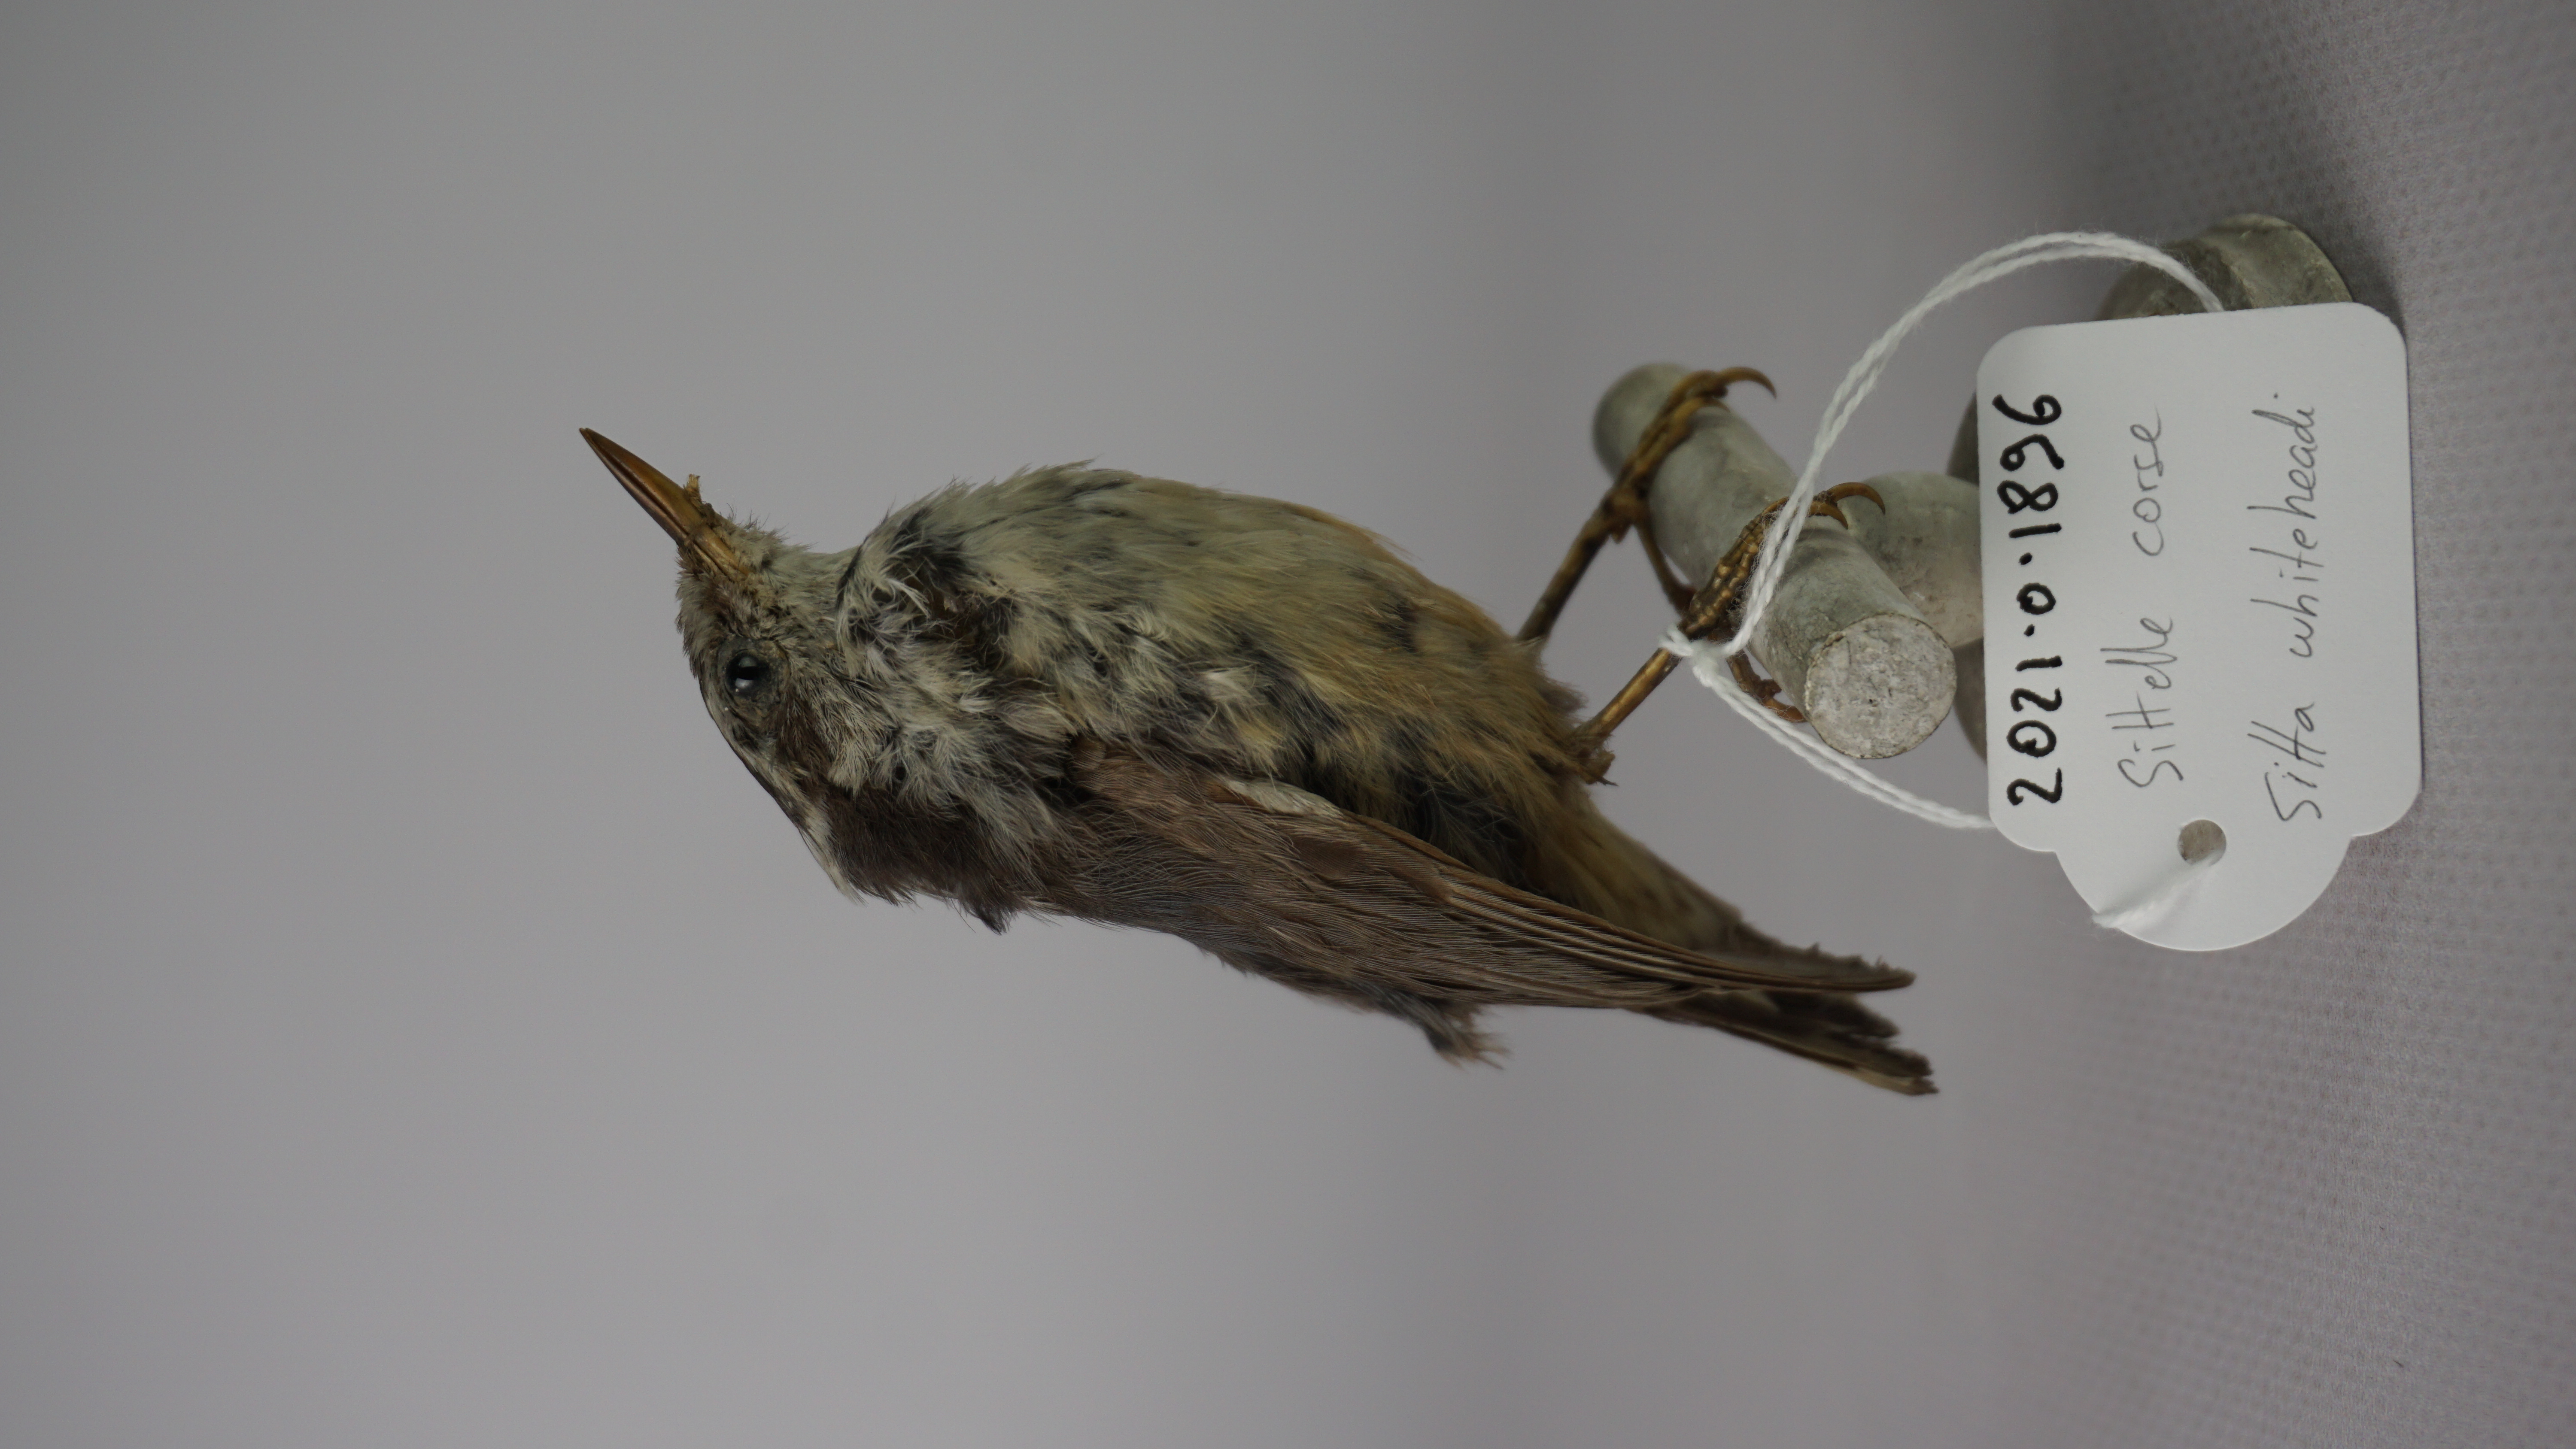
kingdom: Animalia
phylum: Chordata
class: Aves
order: Passeriformes
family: Sittidae
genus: Sitta
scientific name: Sitta whiteheadi
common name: Corsican nuthatch
